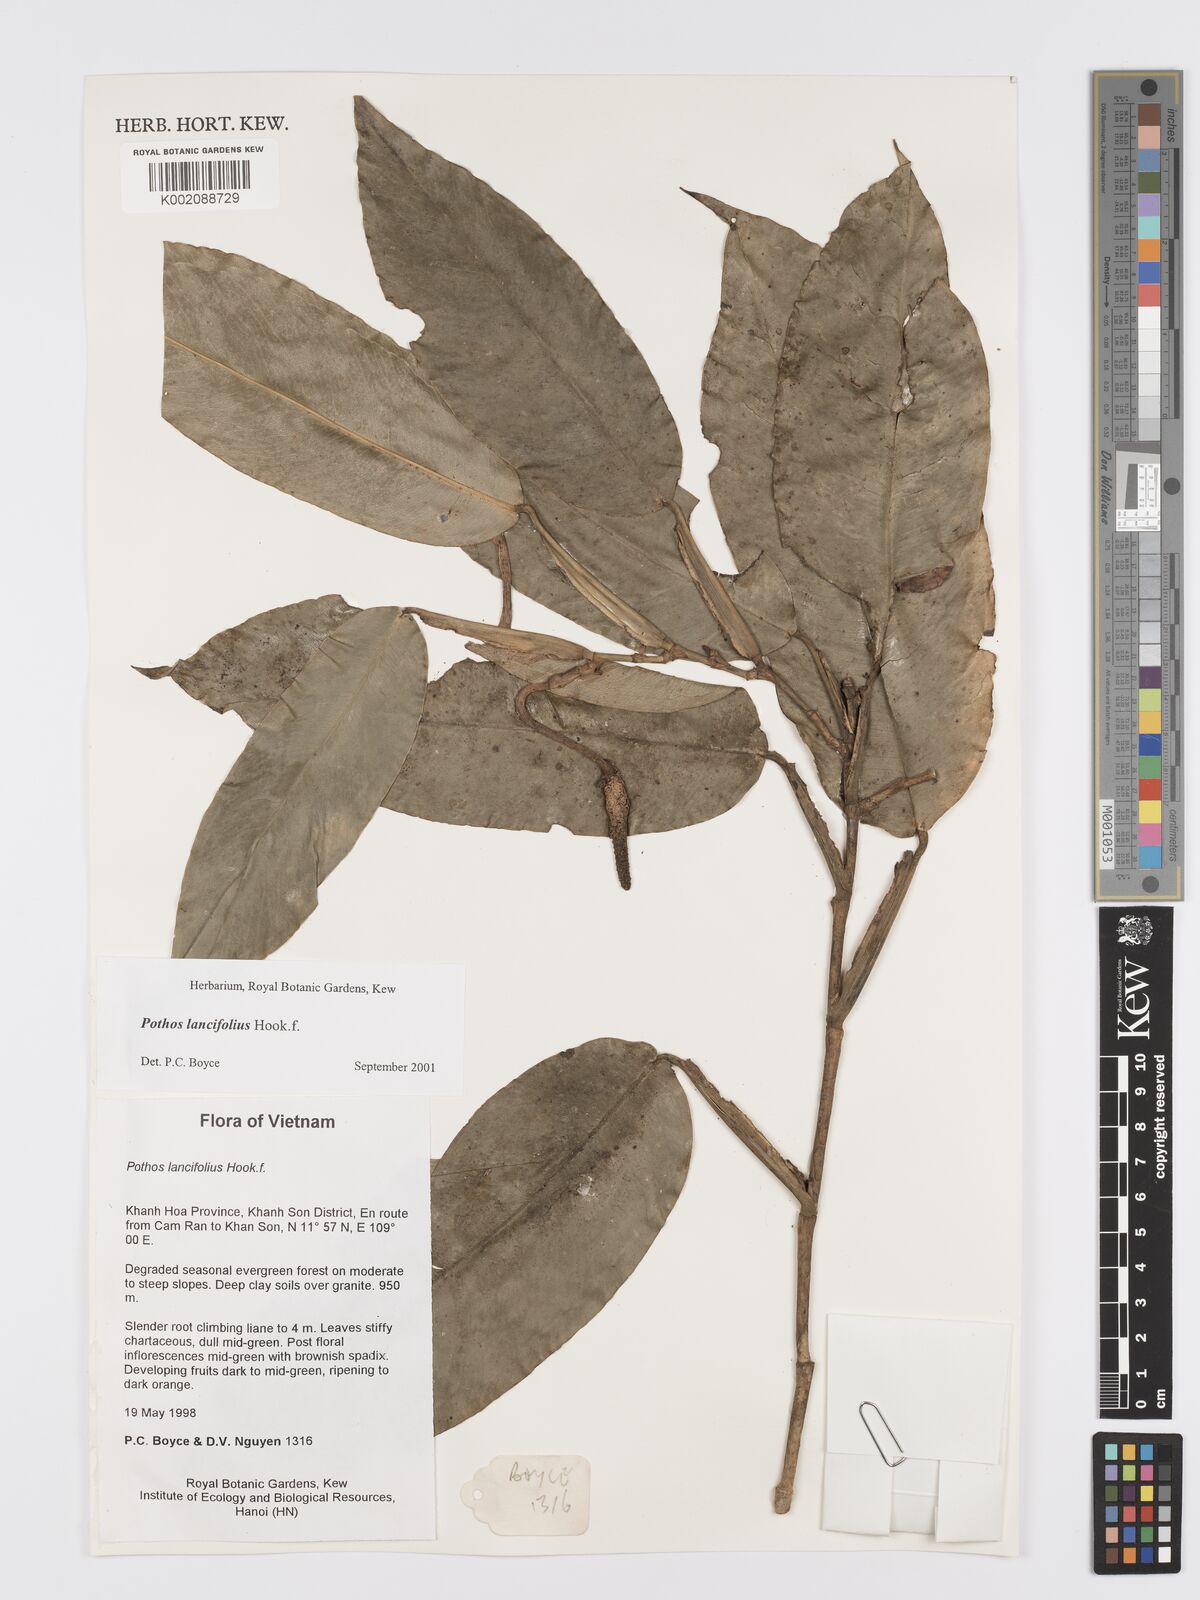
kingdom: Plantae
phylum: Tracheophyta
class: Liliopsida
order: Alismatales
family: Araceae
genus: Pothos
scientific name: Pothos lancifolius
